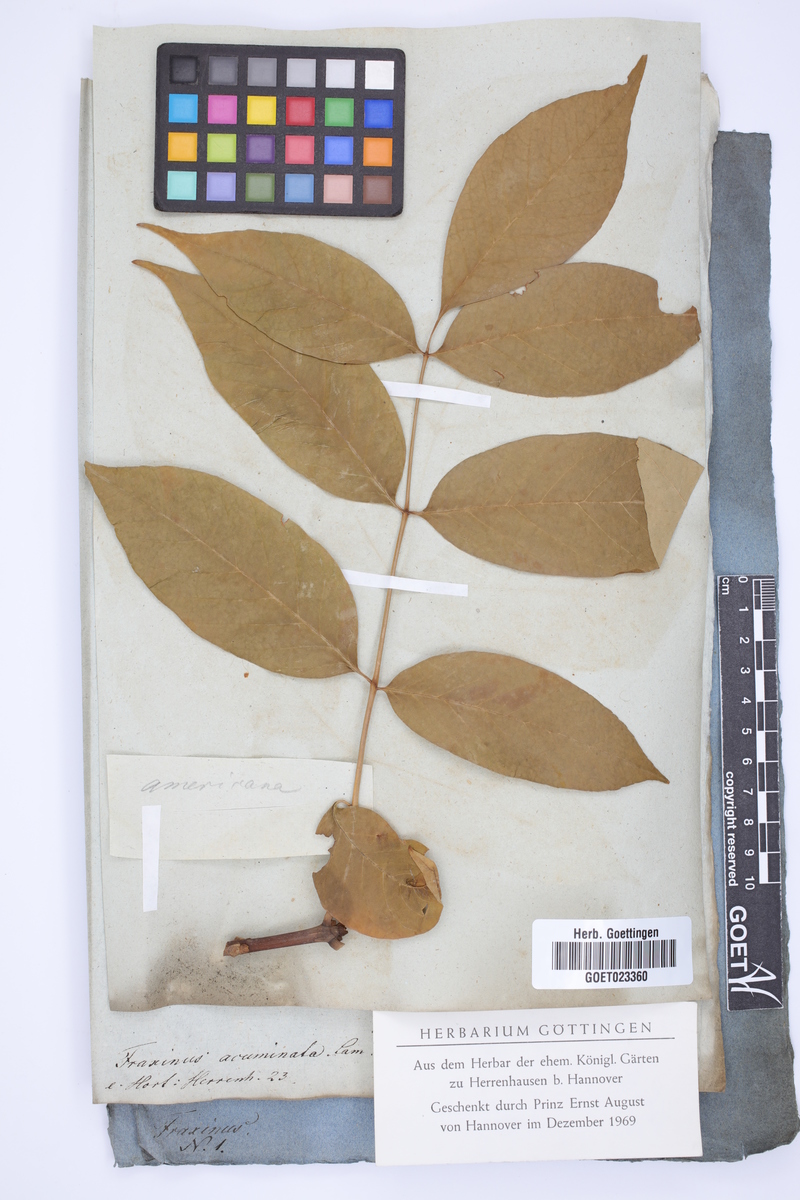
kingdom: Plantae
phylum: Tracheophyta
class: Magnoliopsida
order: Lamiales
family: Oleaceae
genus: Fraxinus
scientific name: Fraxinus americana
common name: White ash
